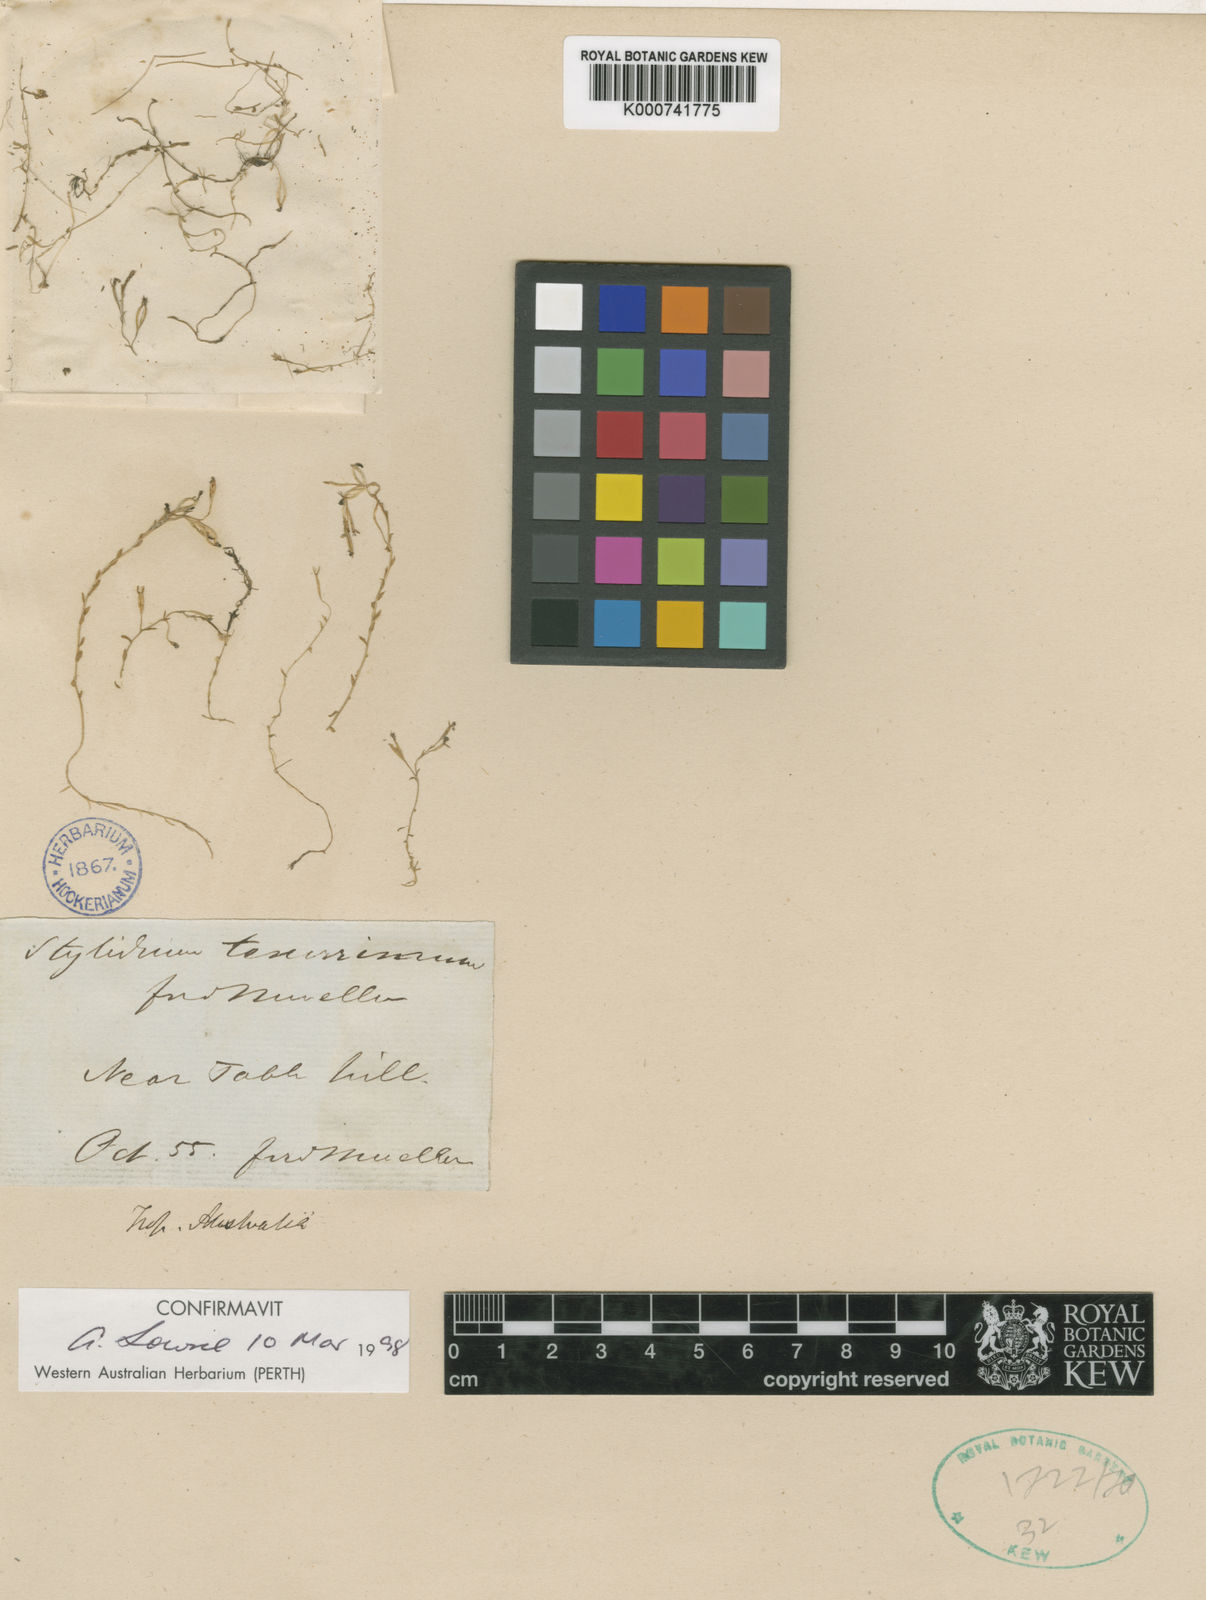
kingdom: Plantae
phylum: Tracheophyta
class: Magnoliopsida
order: Asterales
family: Stylidiaceae
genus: Stylidium
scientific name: Stylidium tenerrimum
